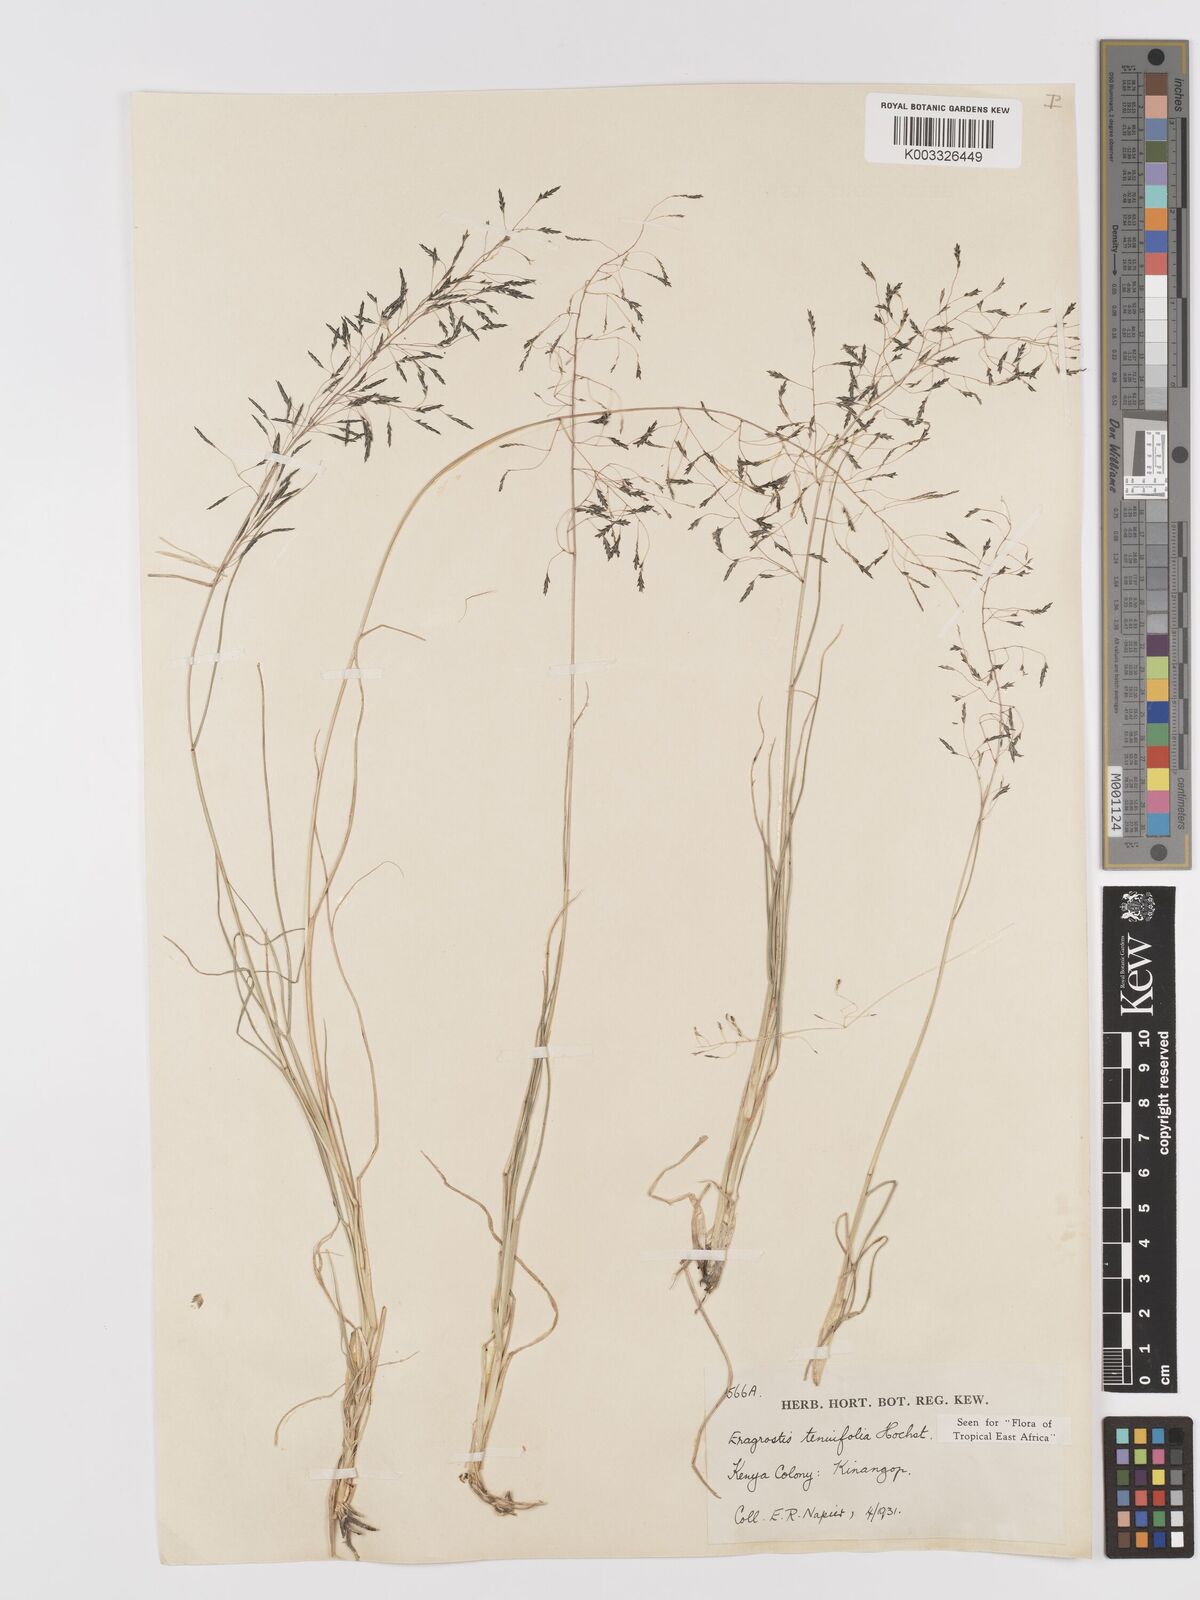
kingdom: Plantae
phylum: Tracheophyta
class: Liliopsida
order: Poales
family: Poaceae
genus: Eragrostis
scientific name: Eragrostis tenuifolia
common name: Elastic grass
